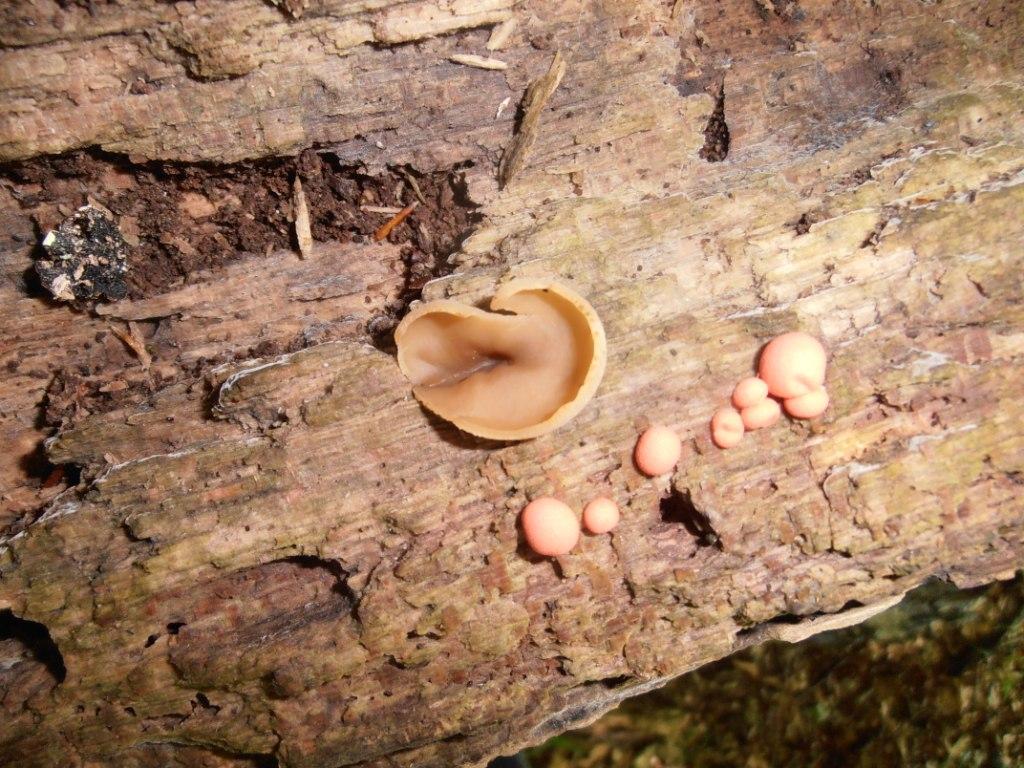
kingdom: Fungi
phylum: Ascomycota
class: Pezizomycetes
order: Pezizales
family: Pezizaceae
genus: Peziza
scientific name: Peziza varia
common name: Ved-bægersvamp
